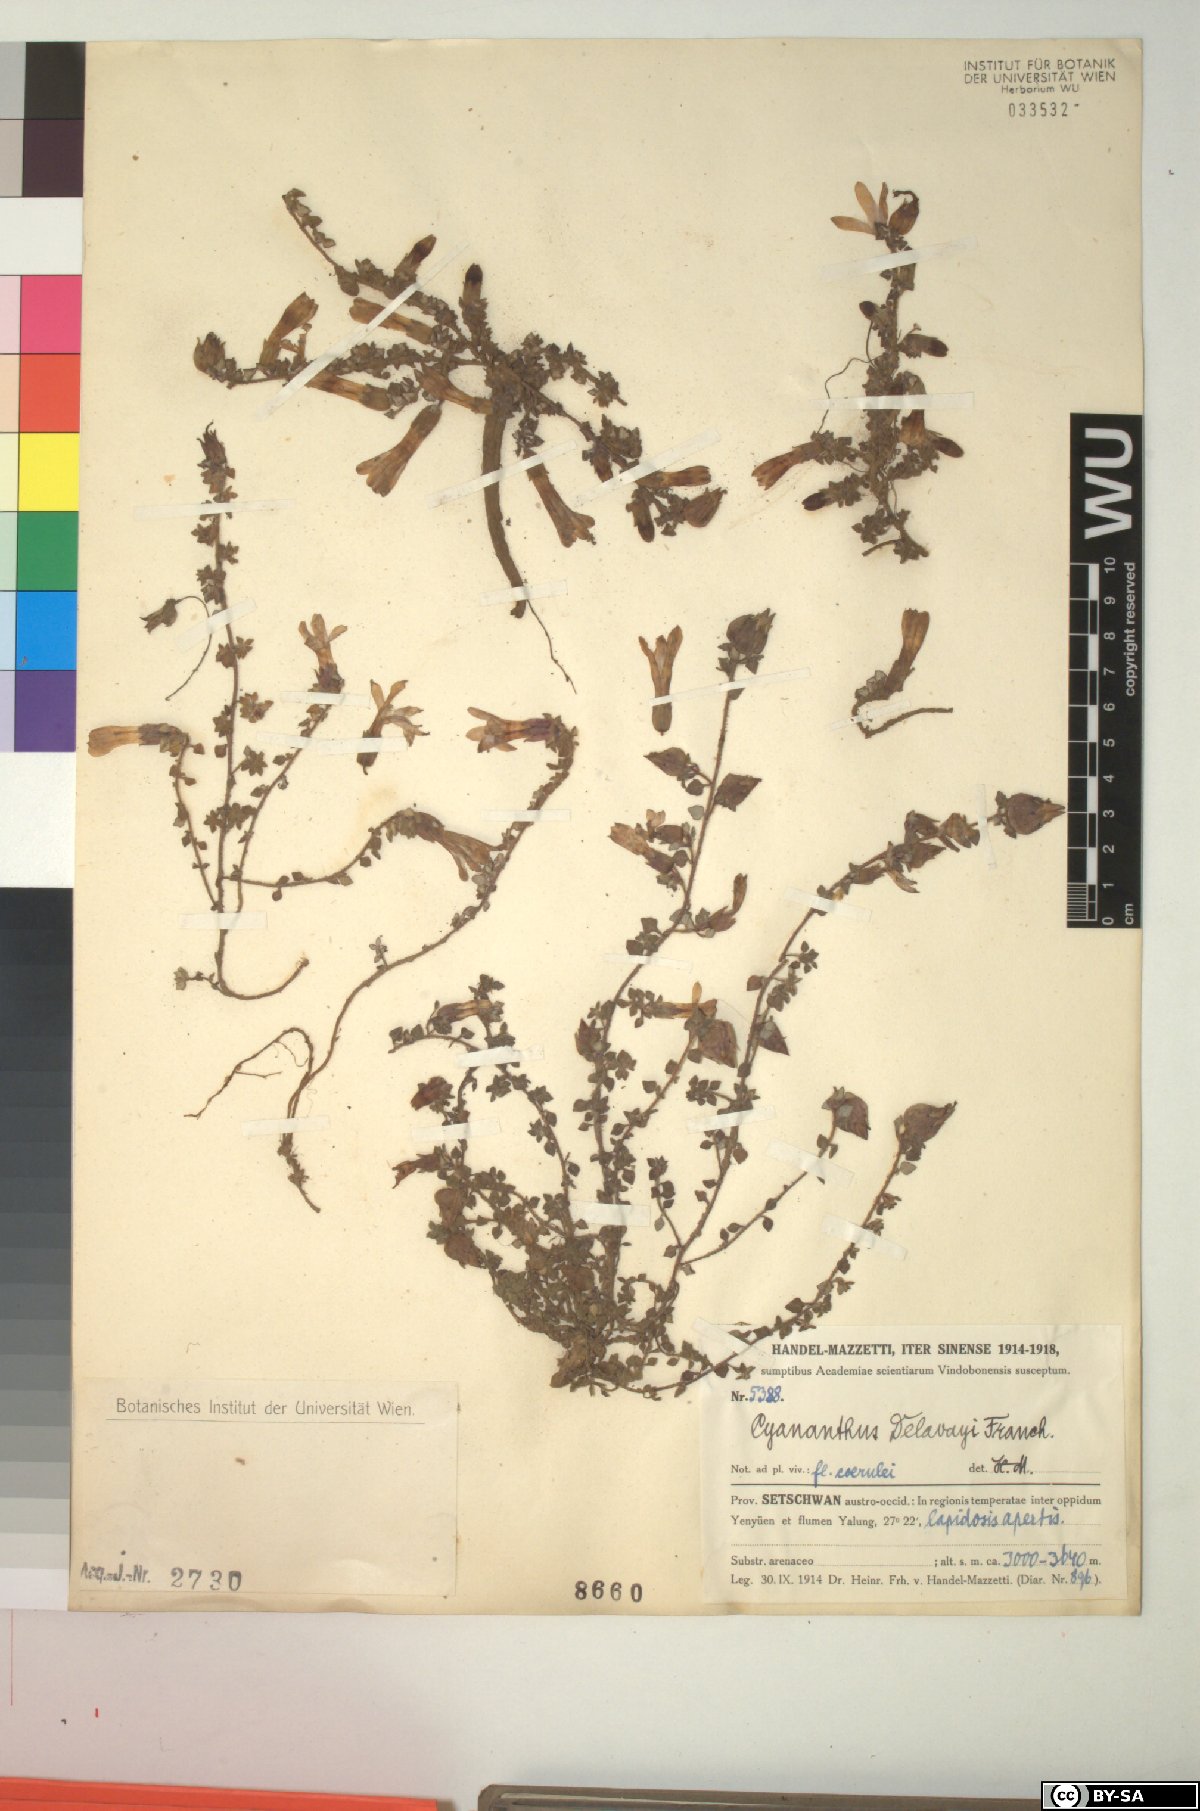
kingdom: Plantae
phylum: Tracheophyta
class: Magnoliopsida
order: Asterales
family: Campanulaceae
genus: Cyananthus
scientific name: Cyananthus delavayi
